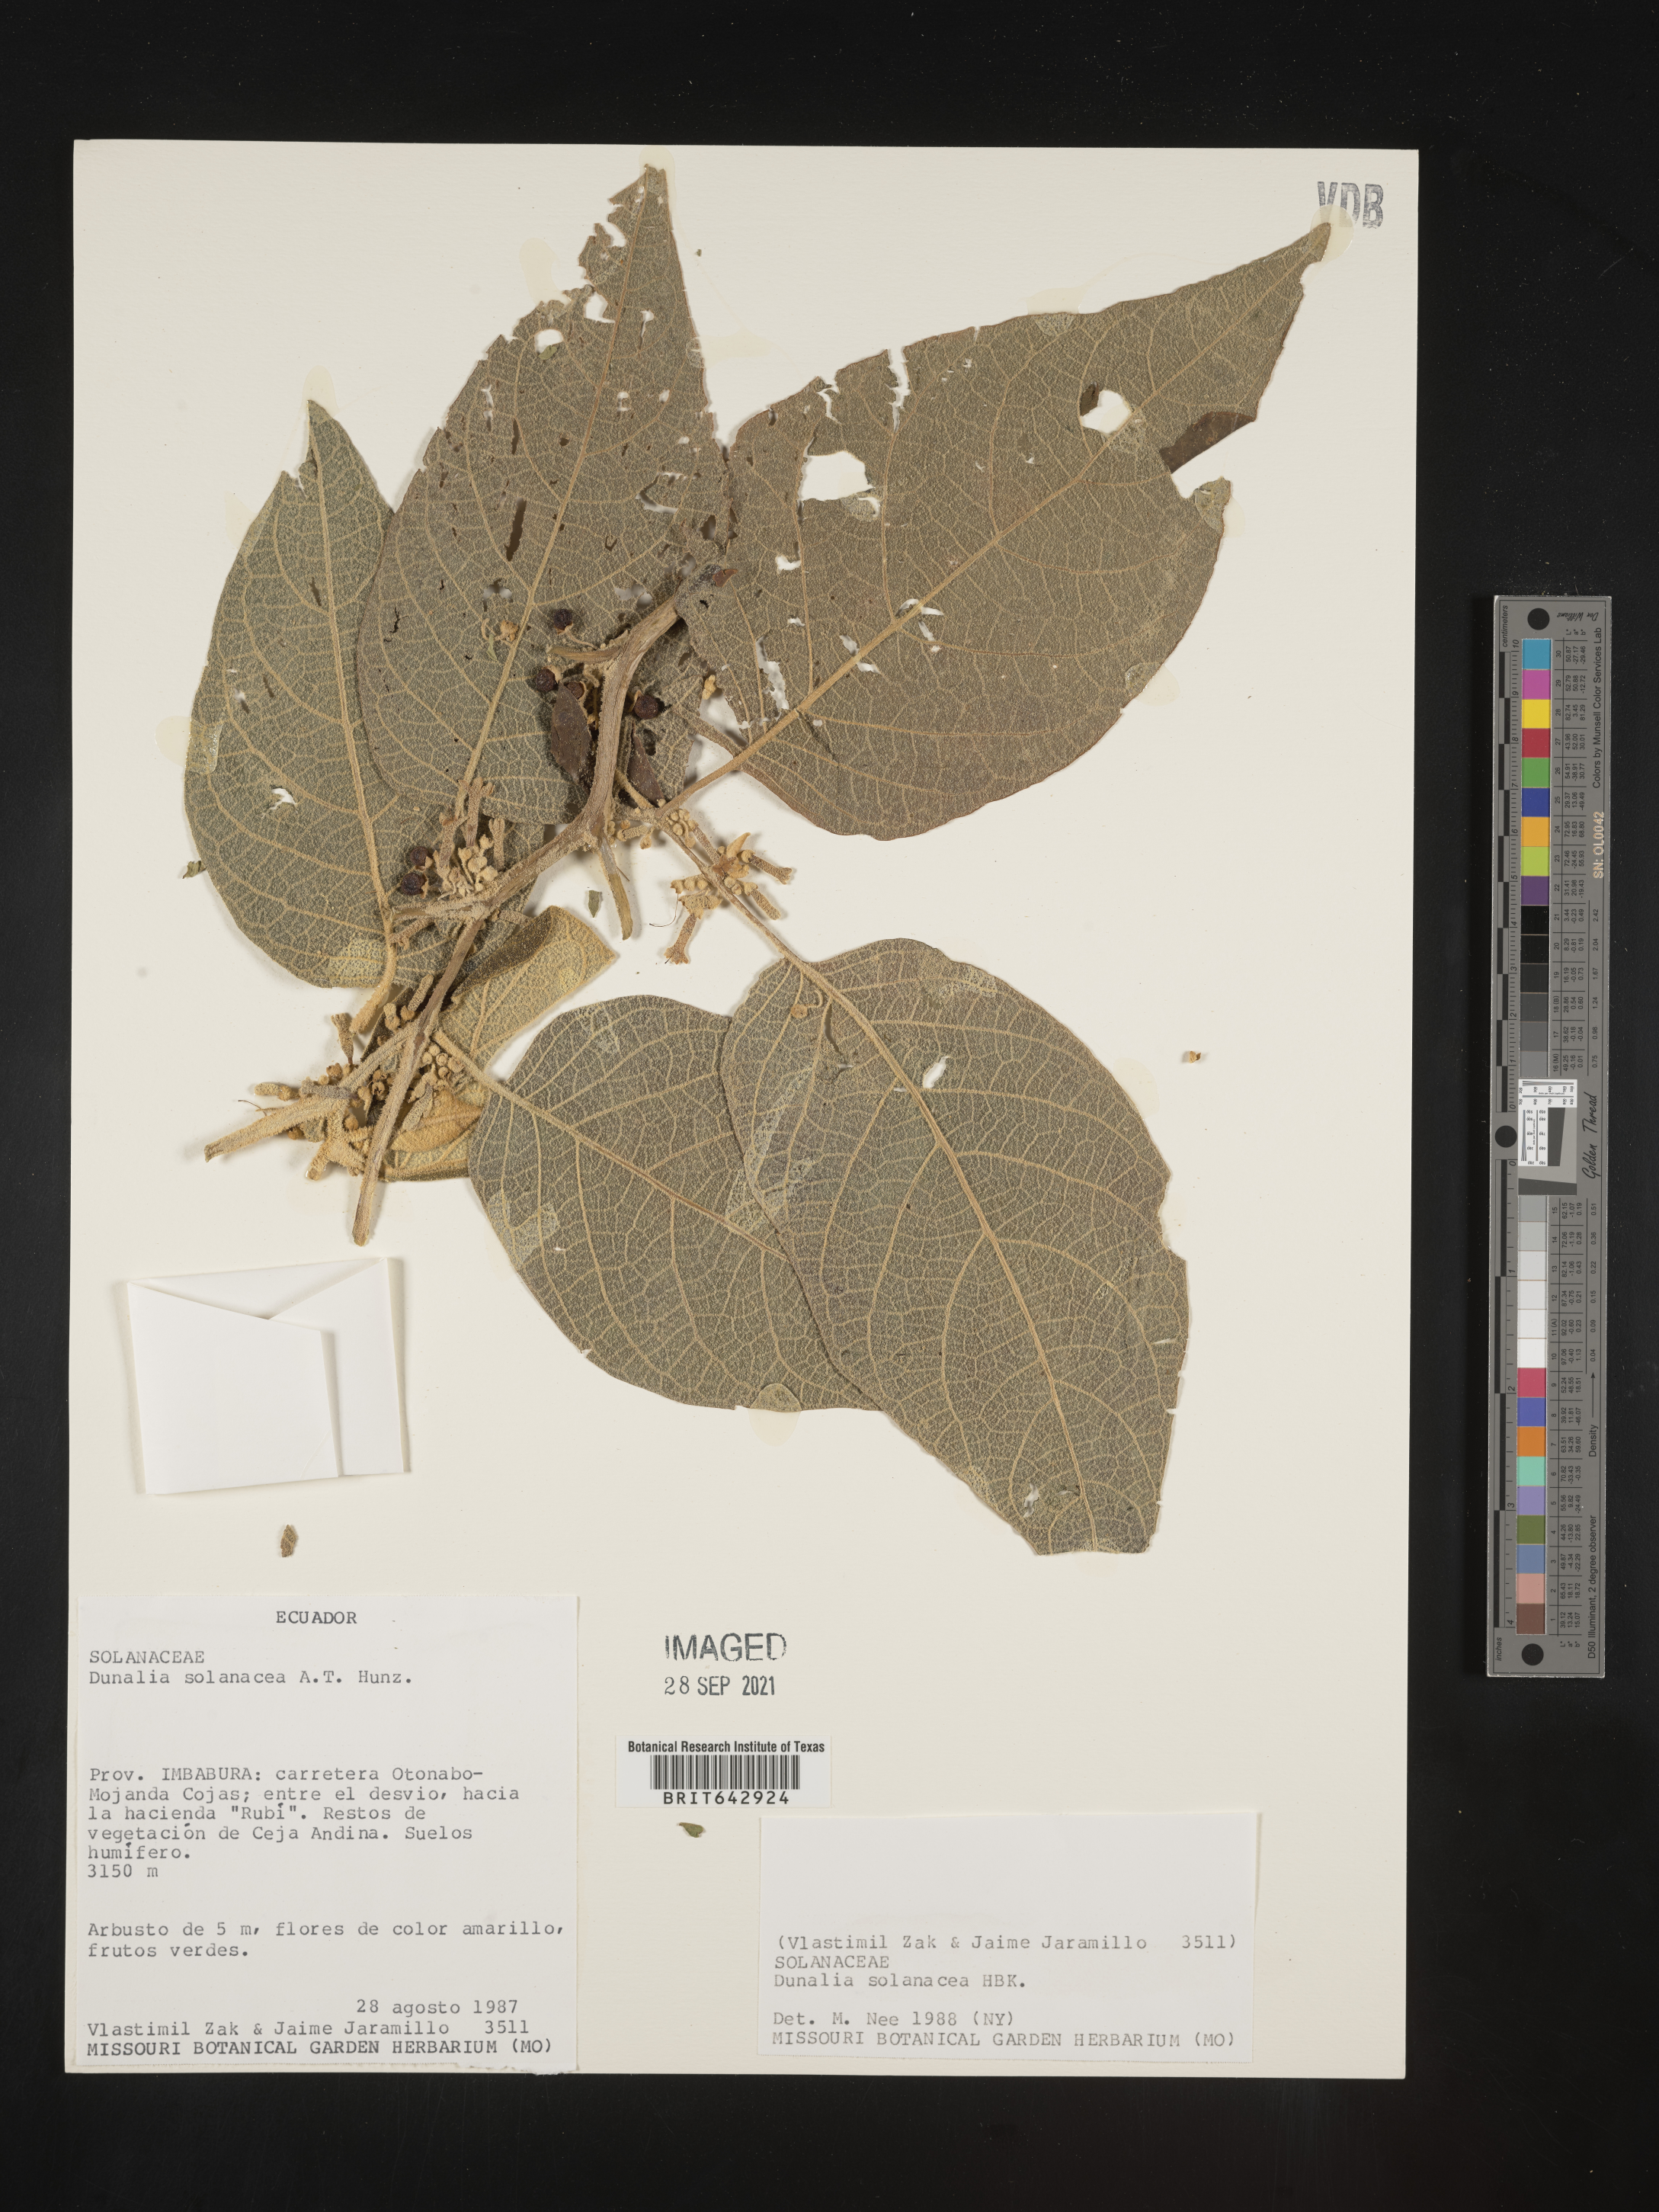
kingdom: Plantae
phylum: Tracheophyta
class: Magnoliopsida
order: Solanales
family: Solanaceae
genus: Dunalia
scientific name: Dunalia
